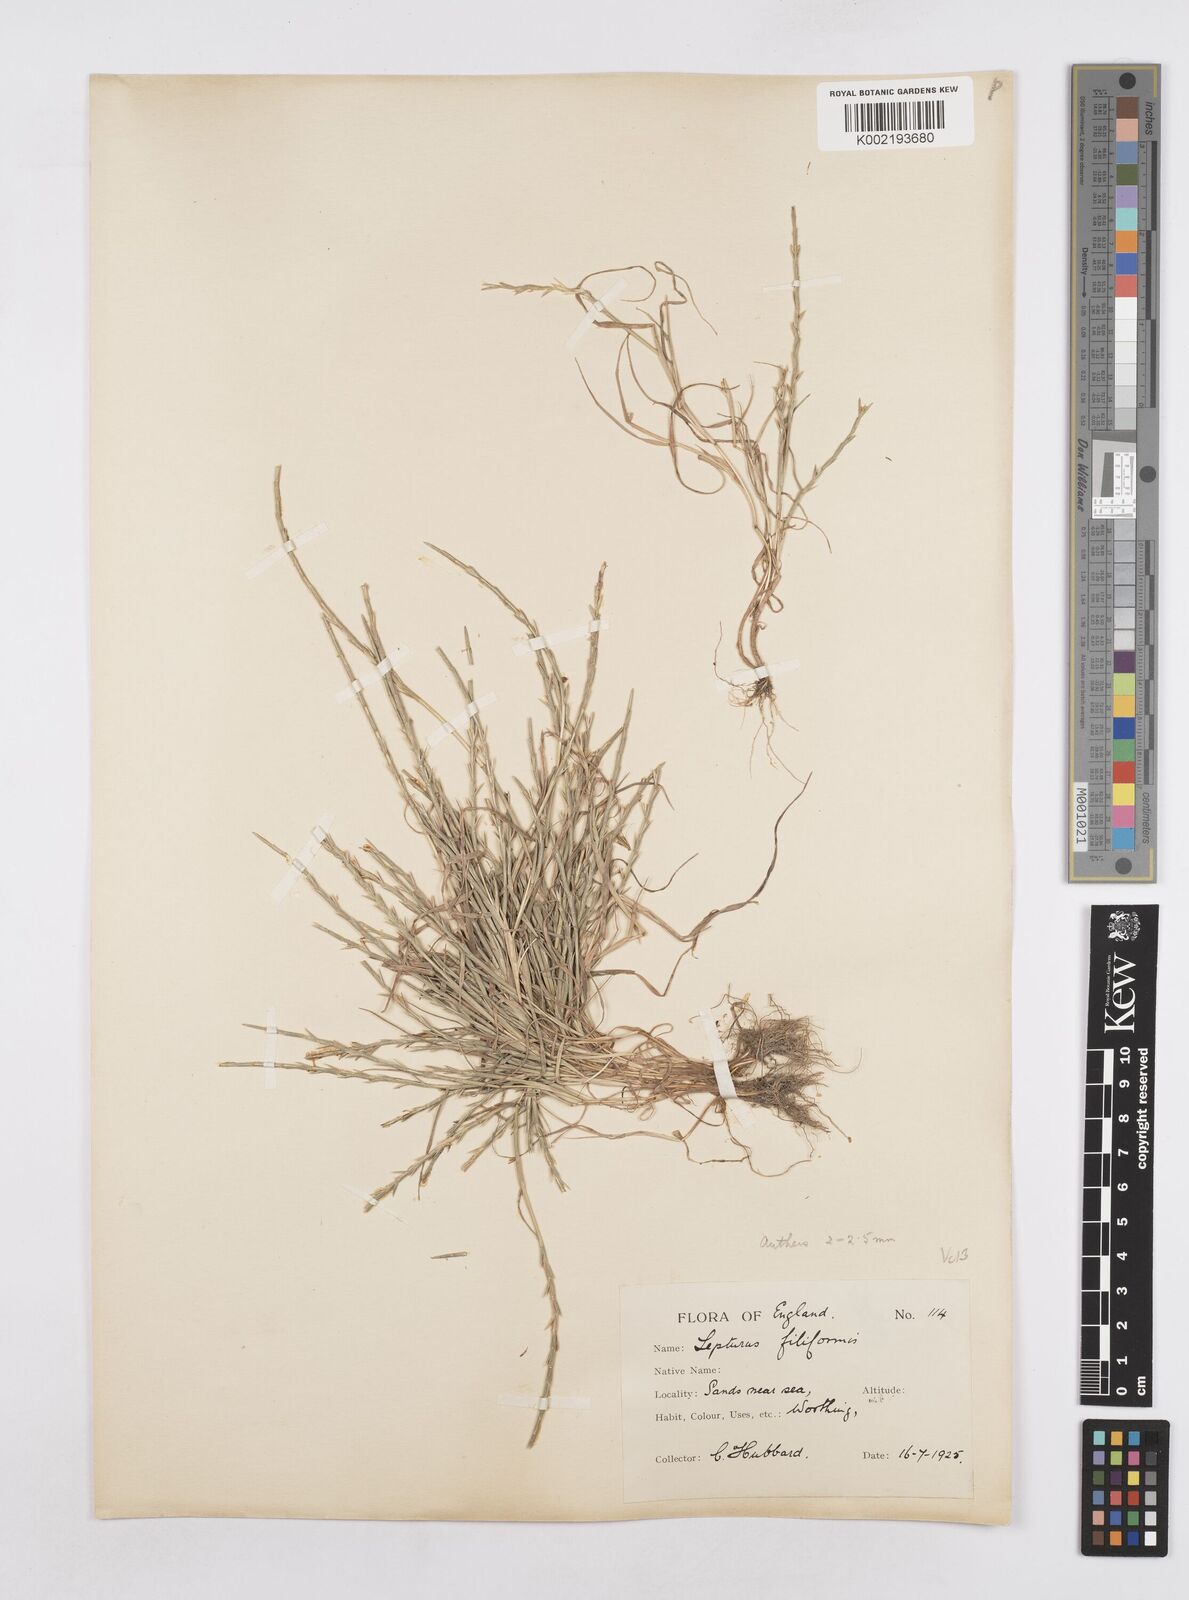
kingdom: Plantae
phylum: Tracheophyta
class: Liliopsida
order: Poales
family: Poaceae
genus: Parapholis
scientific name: Parapholis strigosa
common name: Hard-grass
